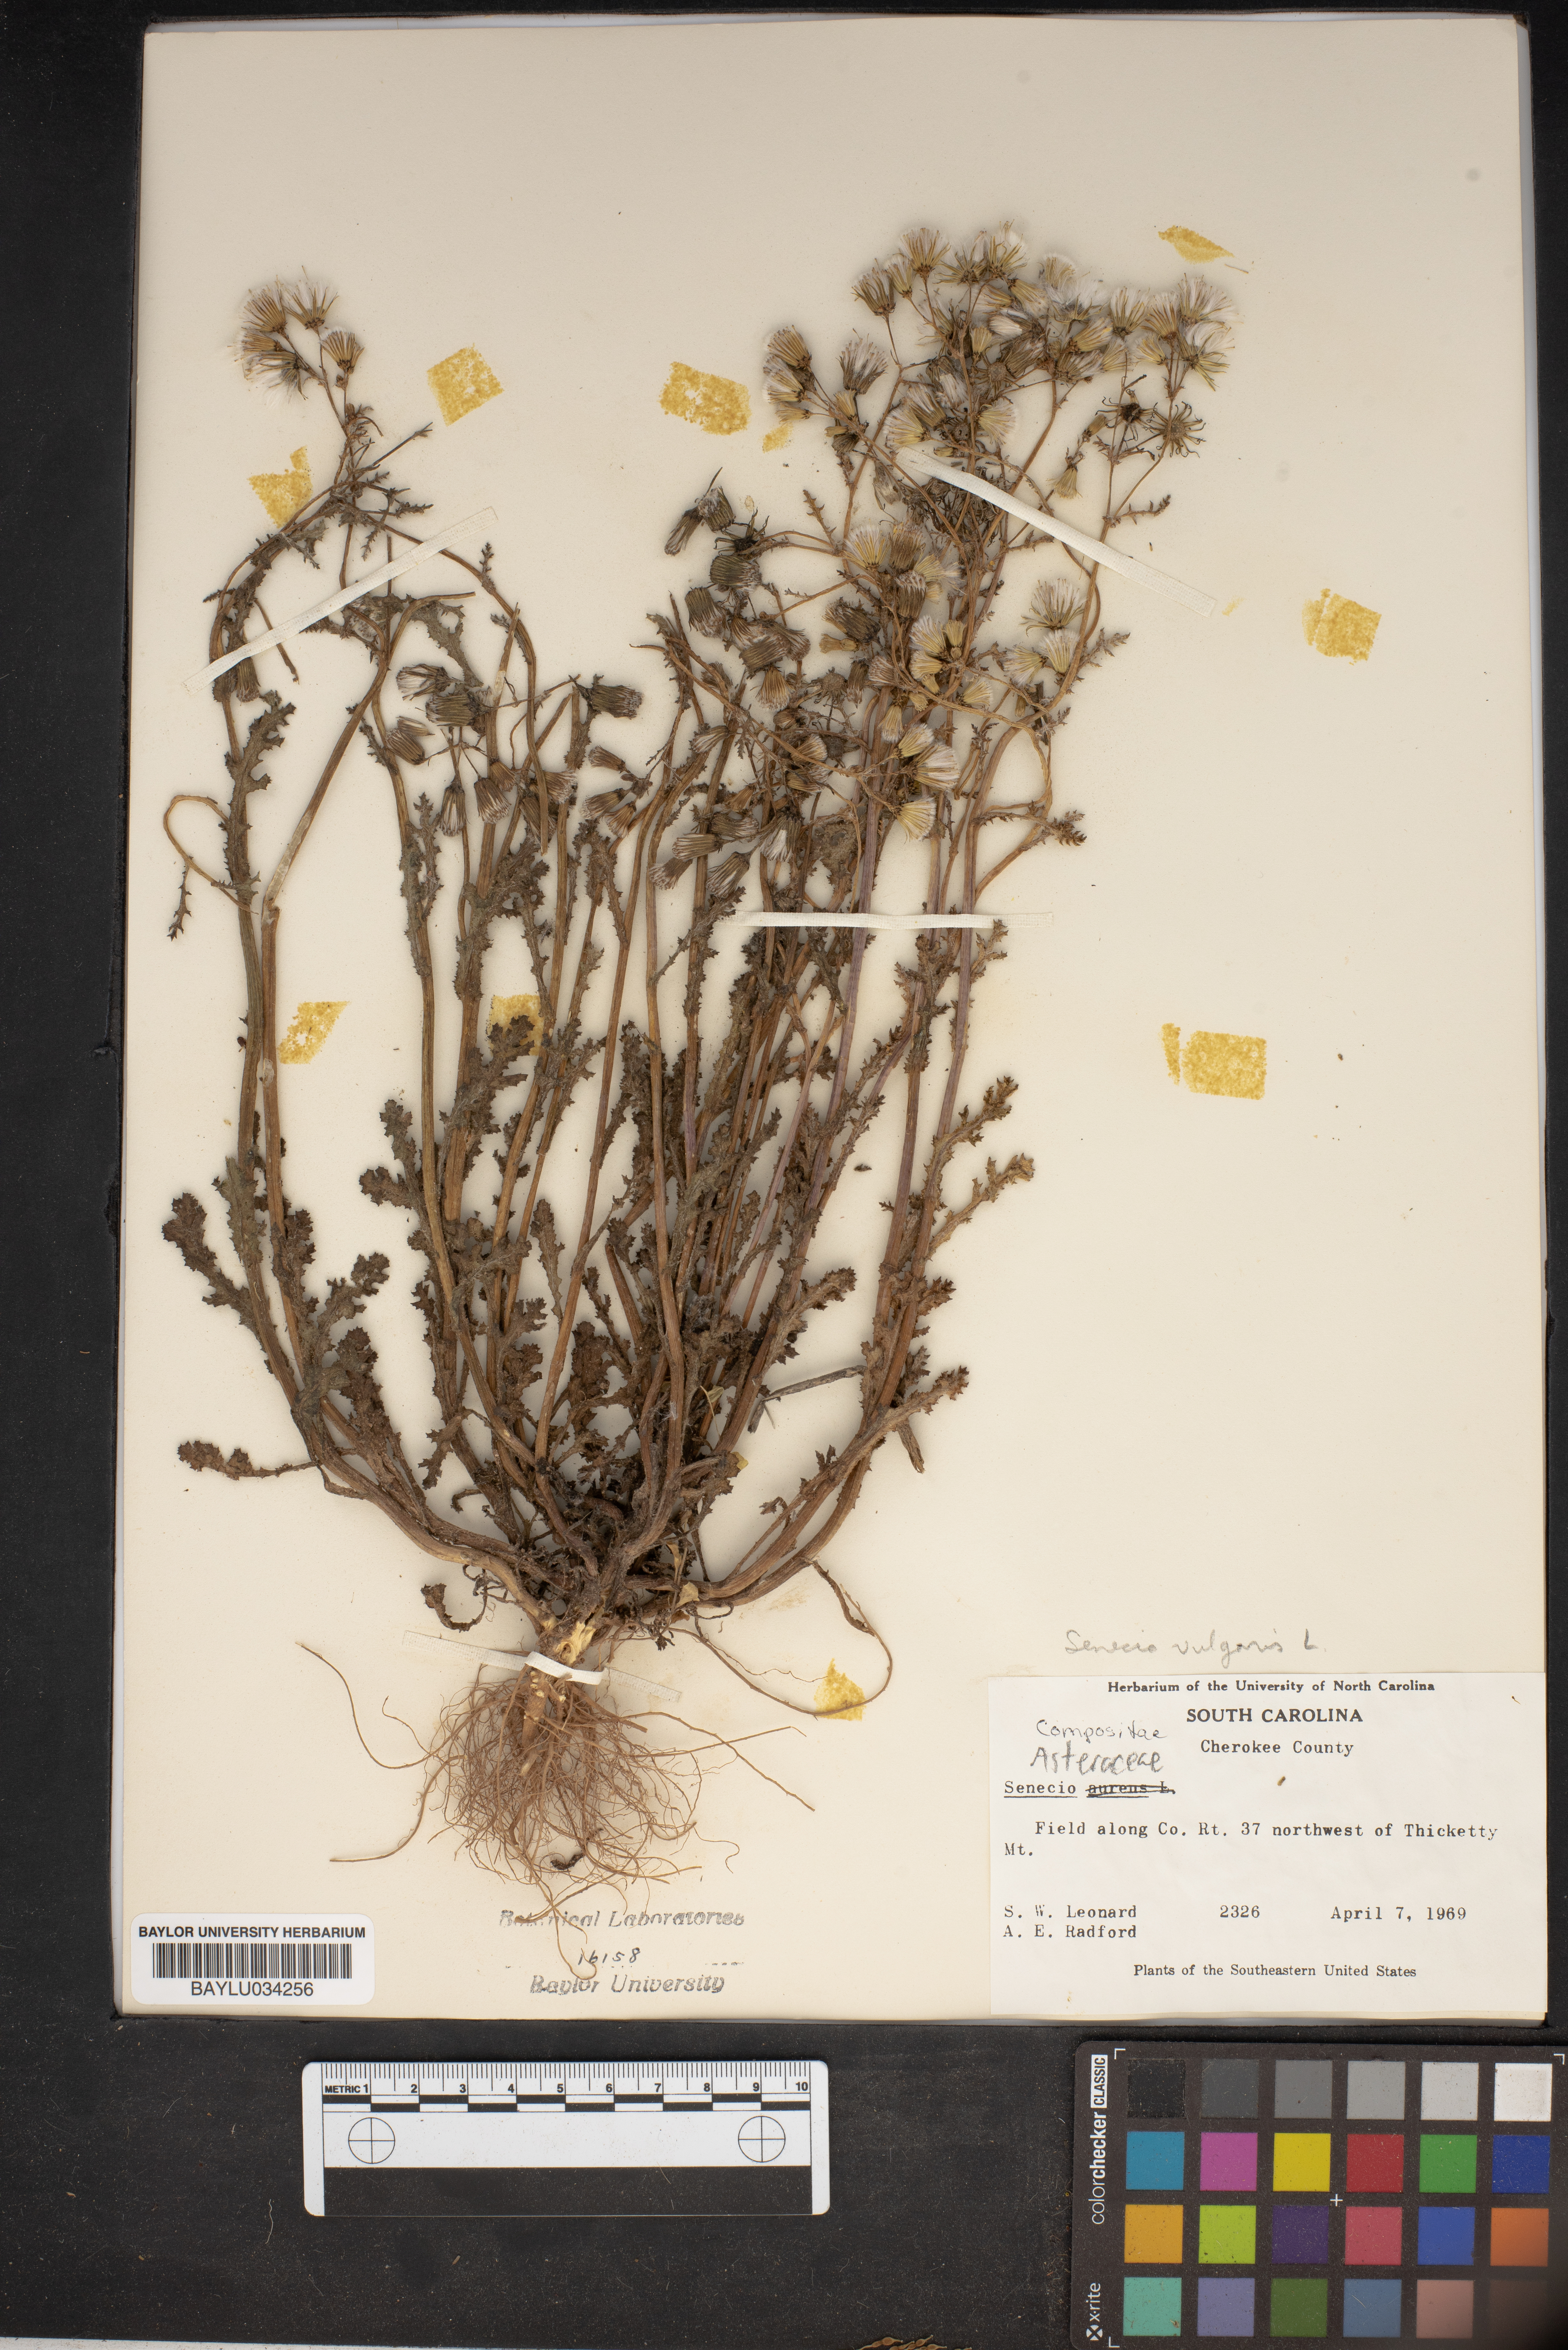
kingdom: Plantae
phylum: Tracheophyta
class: Magnoliopsida
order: Asterales
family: Asteraceae
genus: Packera
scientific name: Packera aurea
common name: Golden groundsel
